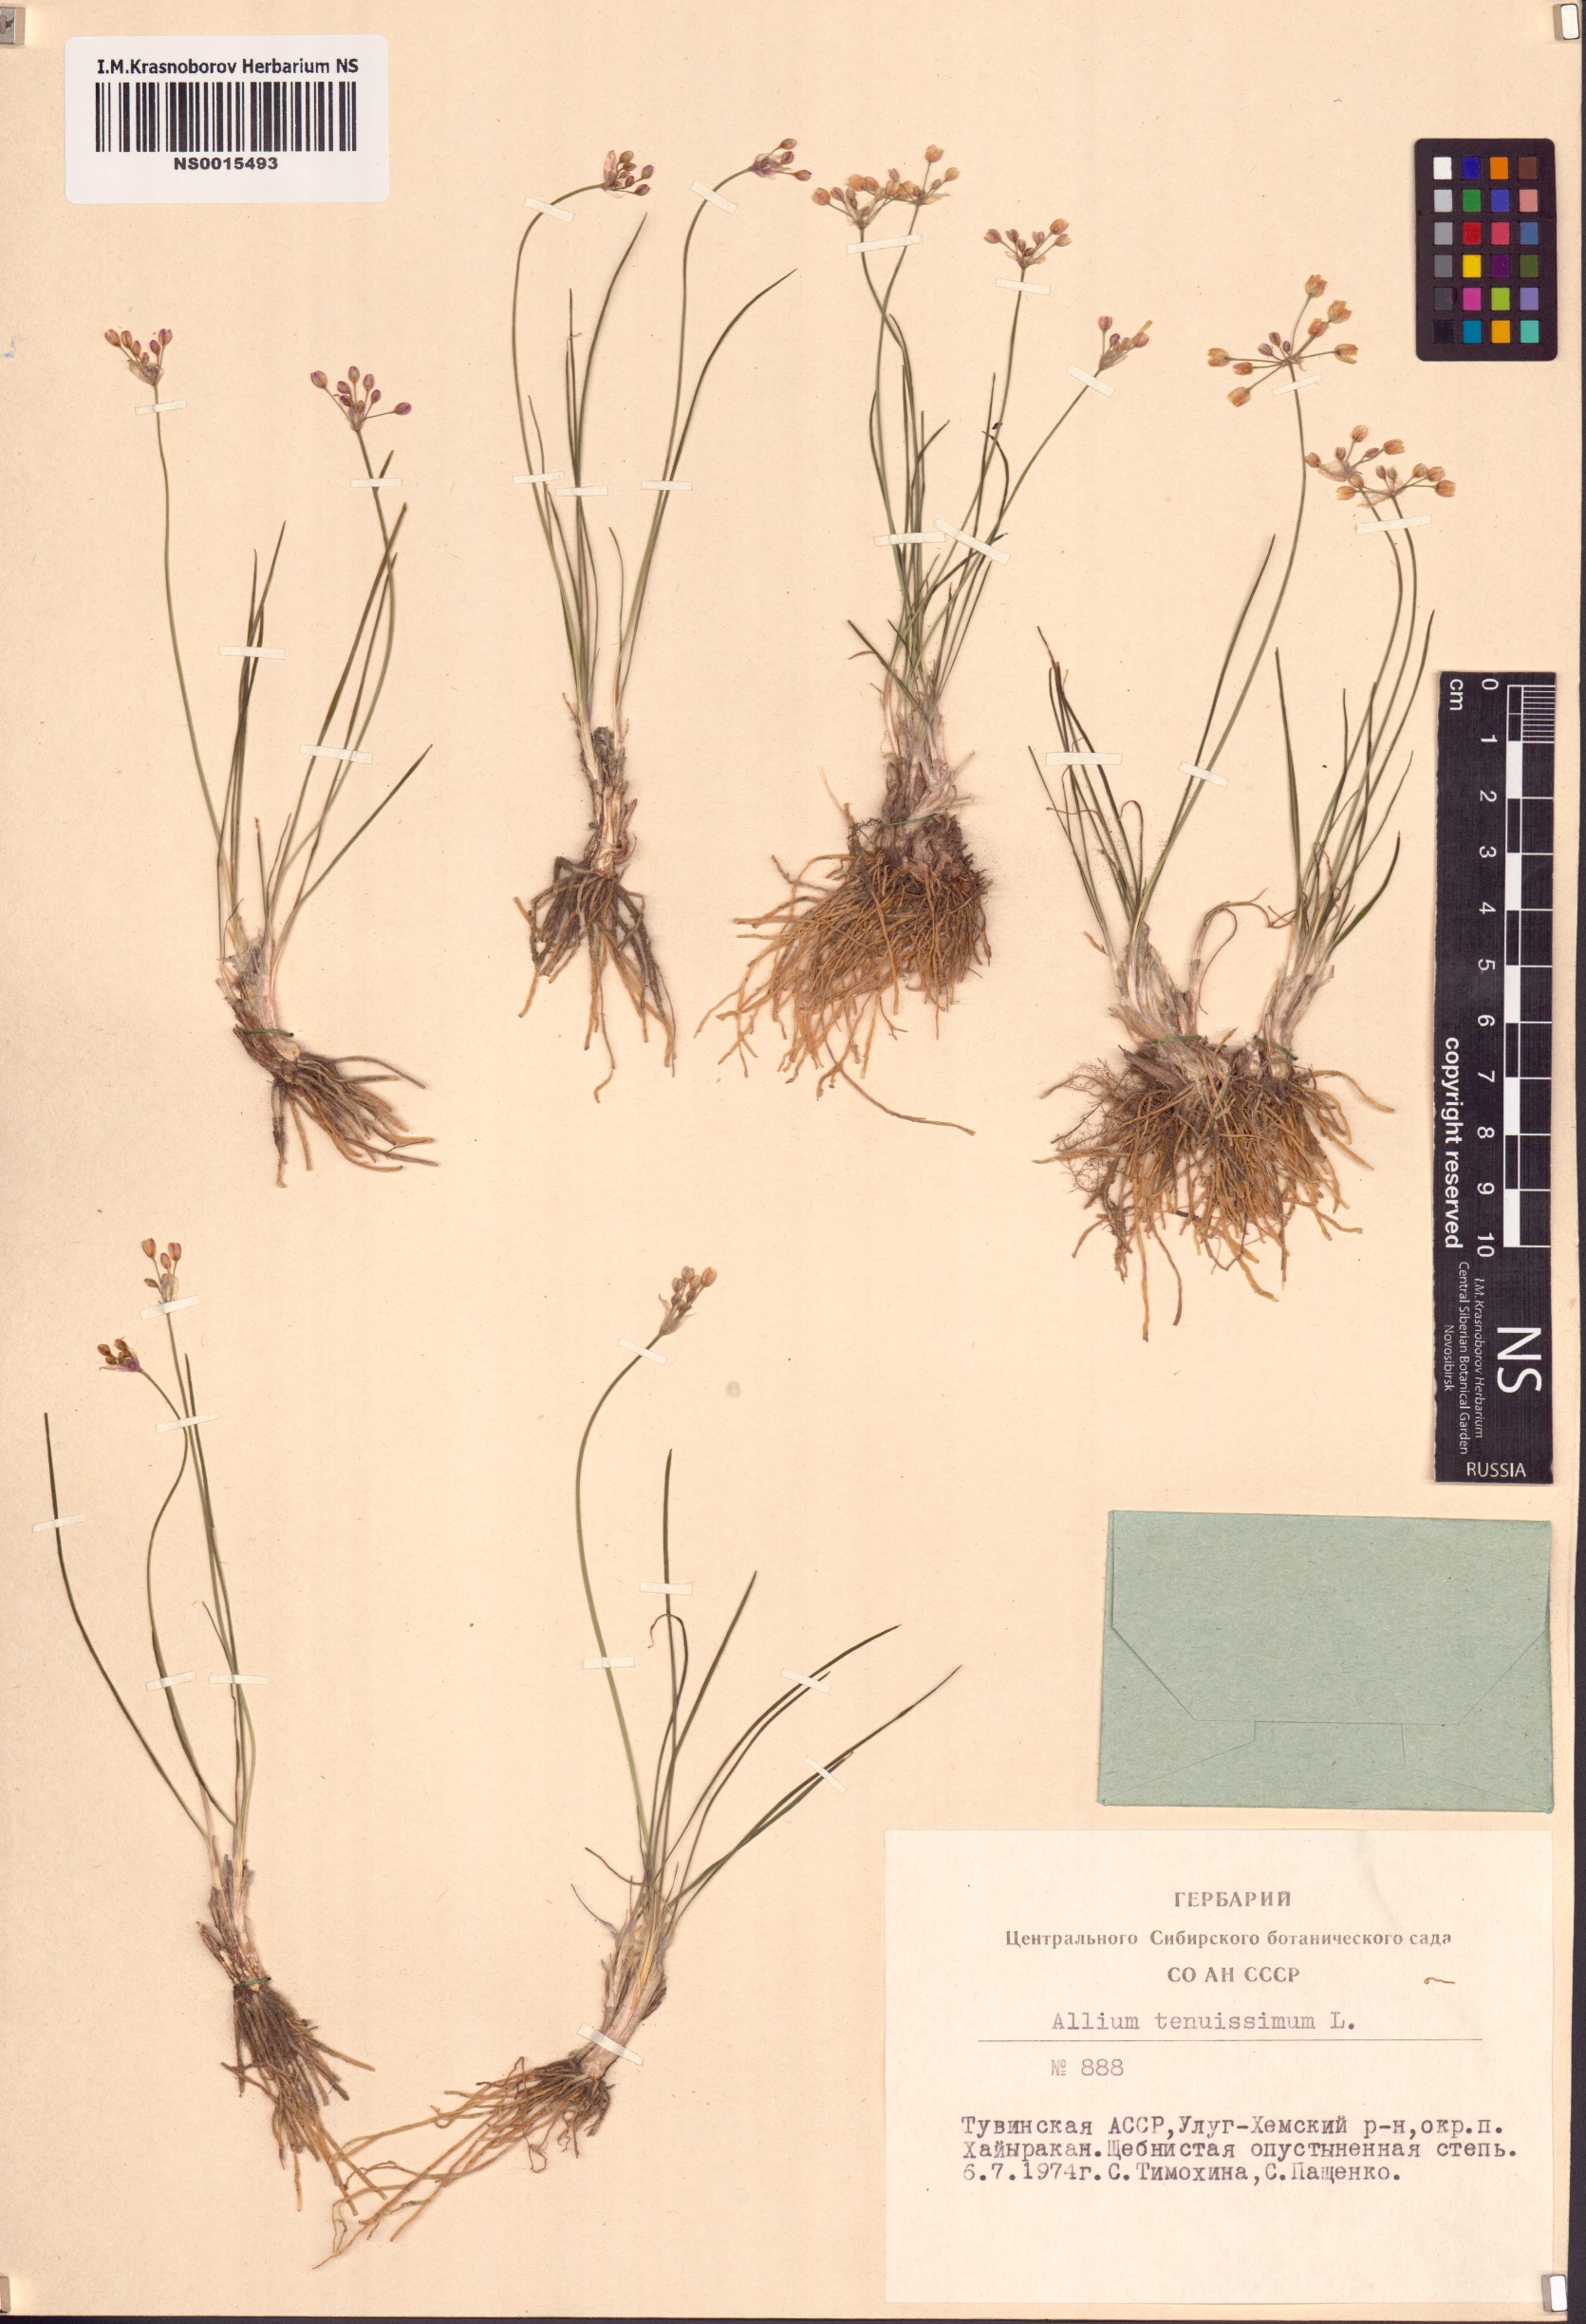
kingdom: Plantae
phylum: Tracheophyta
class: Liliopsida
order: Asparagales
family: Amaryllidaceae
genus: Allium
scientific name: Allium tenuissimum
